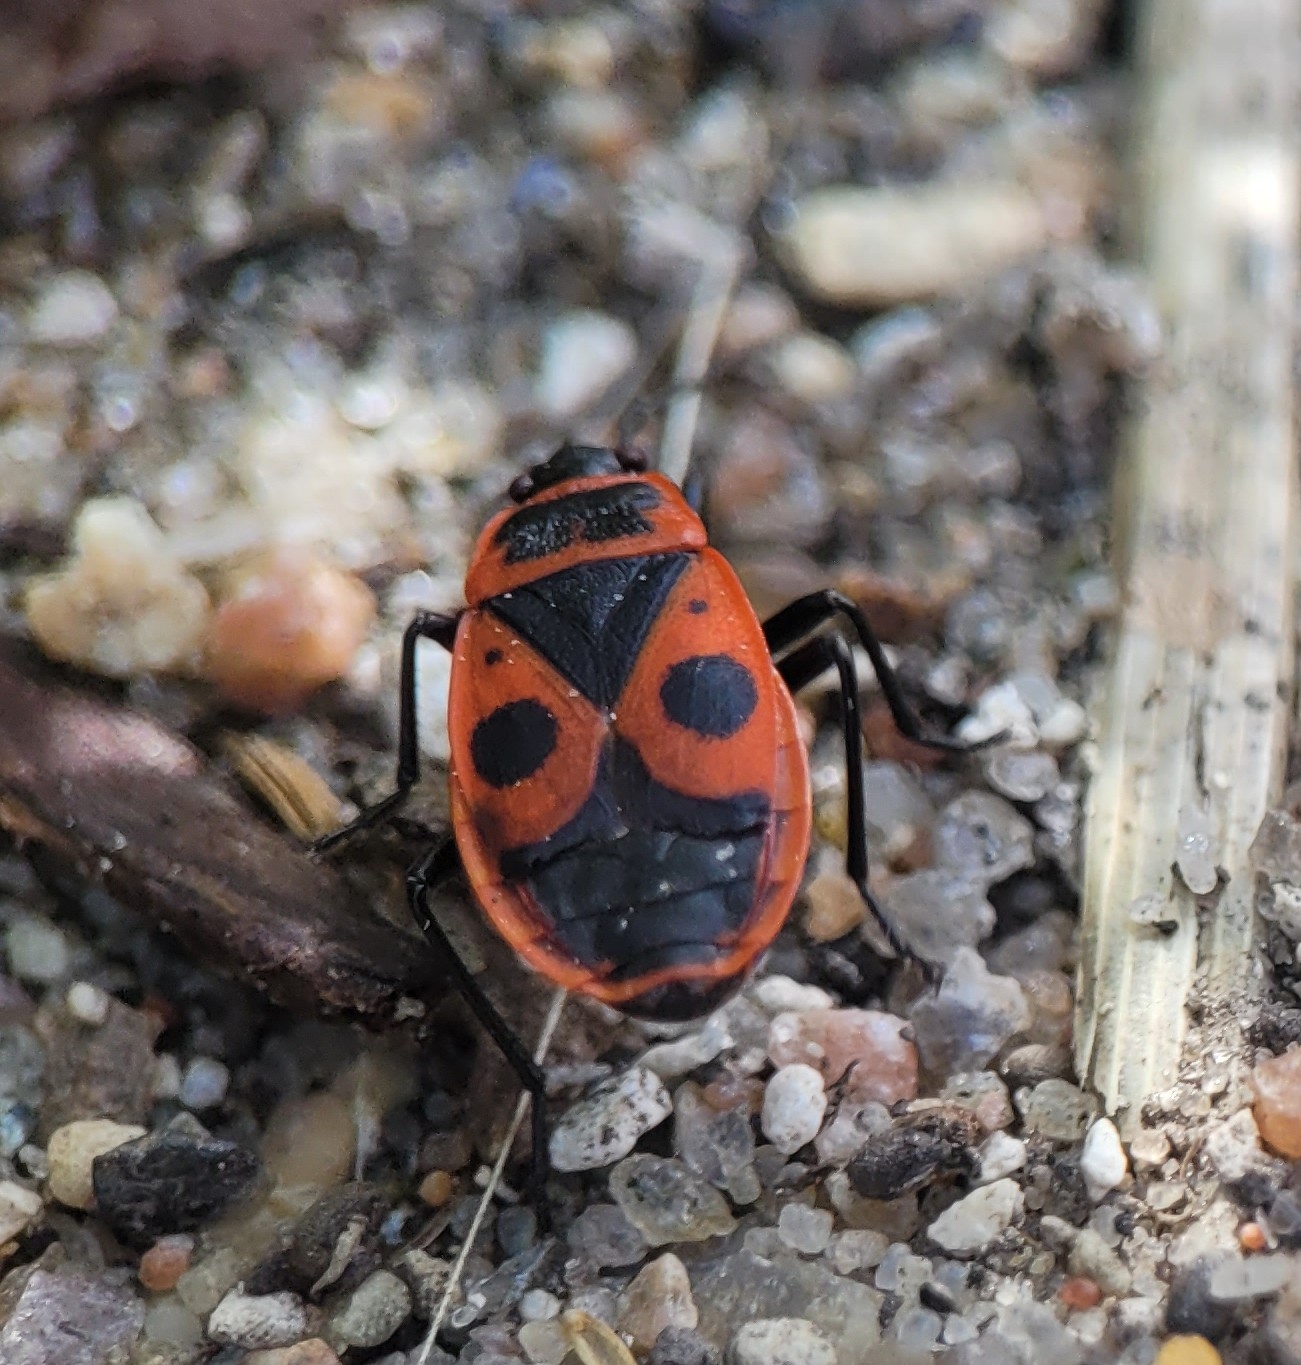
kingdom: Animalia
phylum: Arthropoda
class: Insecta
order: Hemiptera
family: Pyrrhocoridae
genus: Pyrrhocoris
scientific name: Pyrrhocoris apterus
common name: Ildtæge
